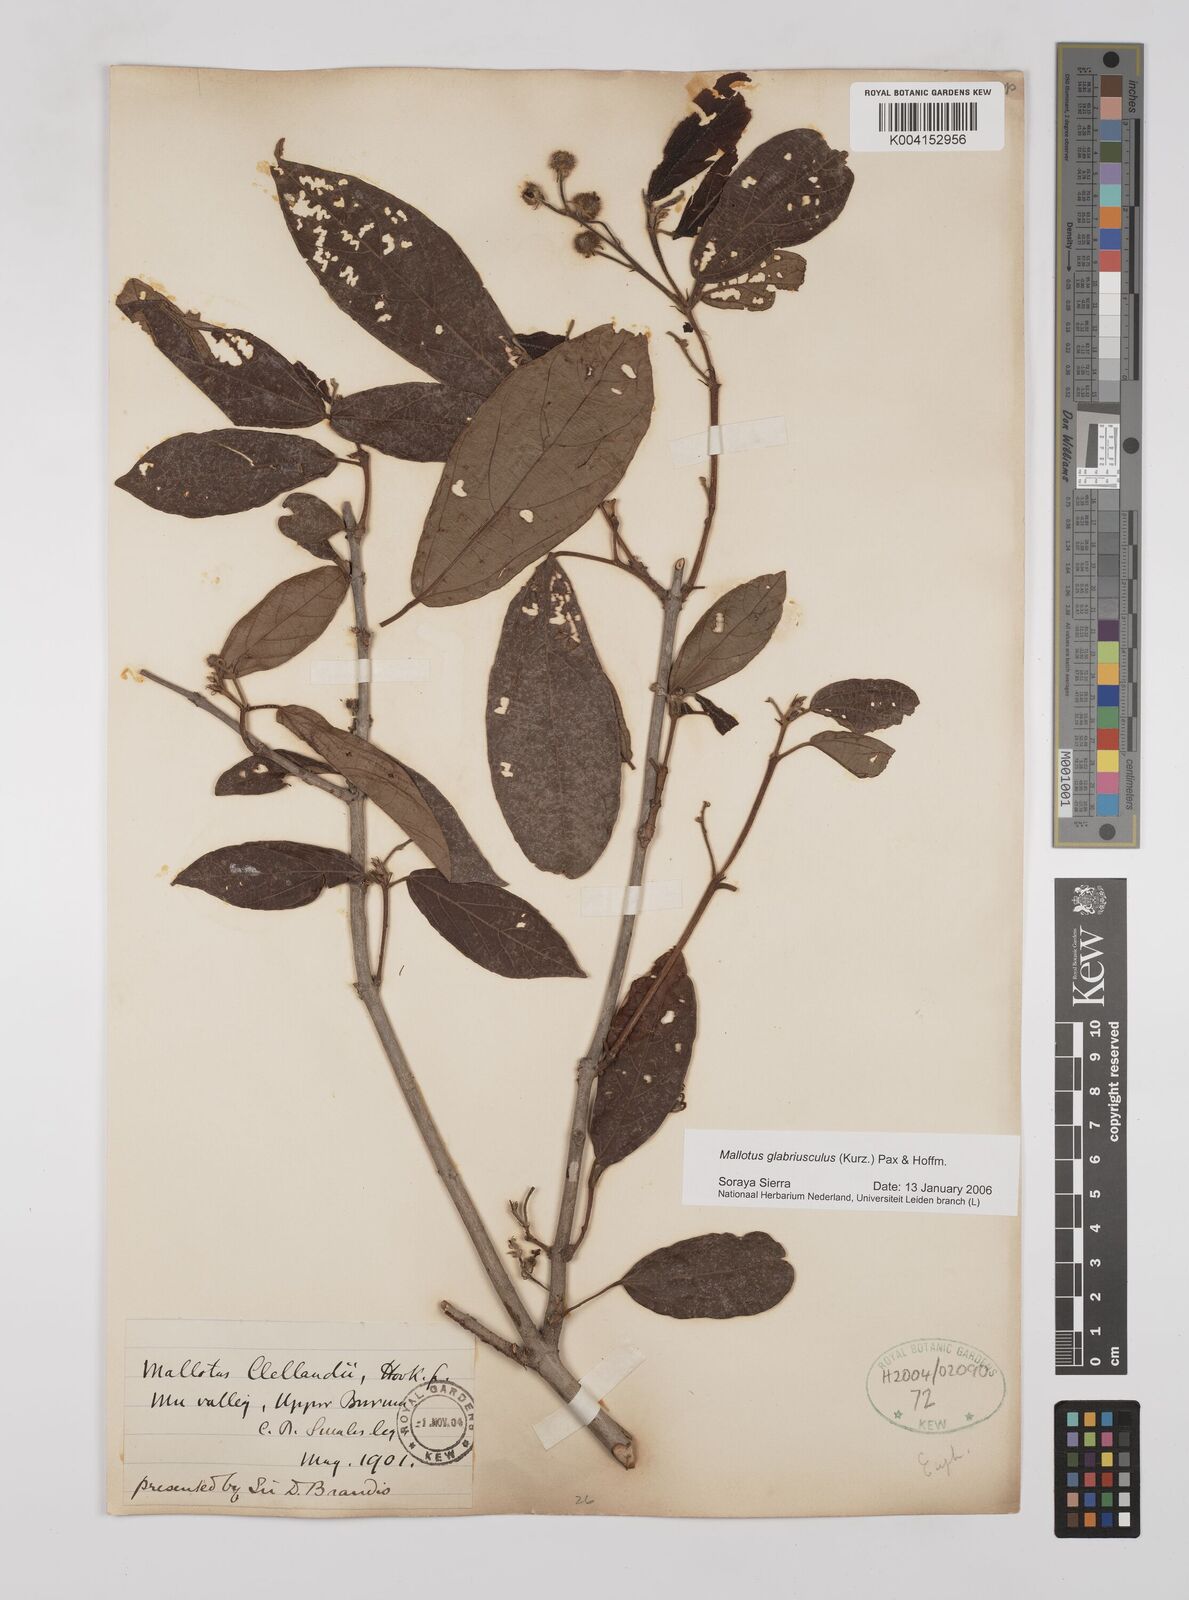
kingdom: Plantae
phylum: Tracheophyta
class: Magnoliopsida
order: Malpighiales
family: Euphorbiaceae
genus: Mallotus
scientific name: Mallotus glabriusculus
